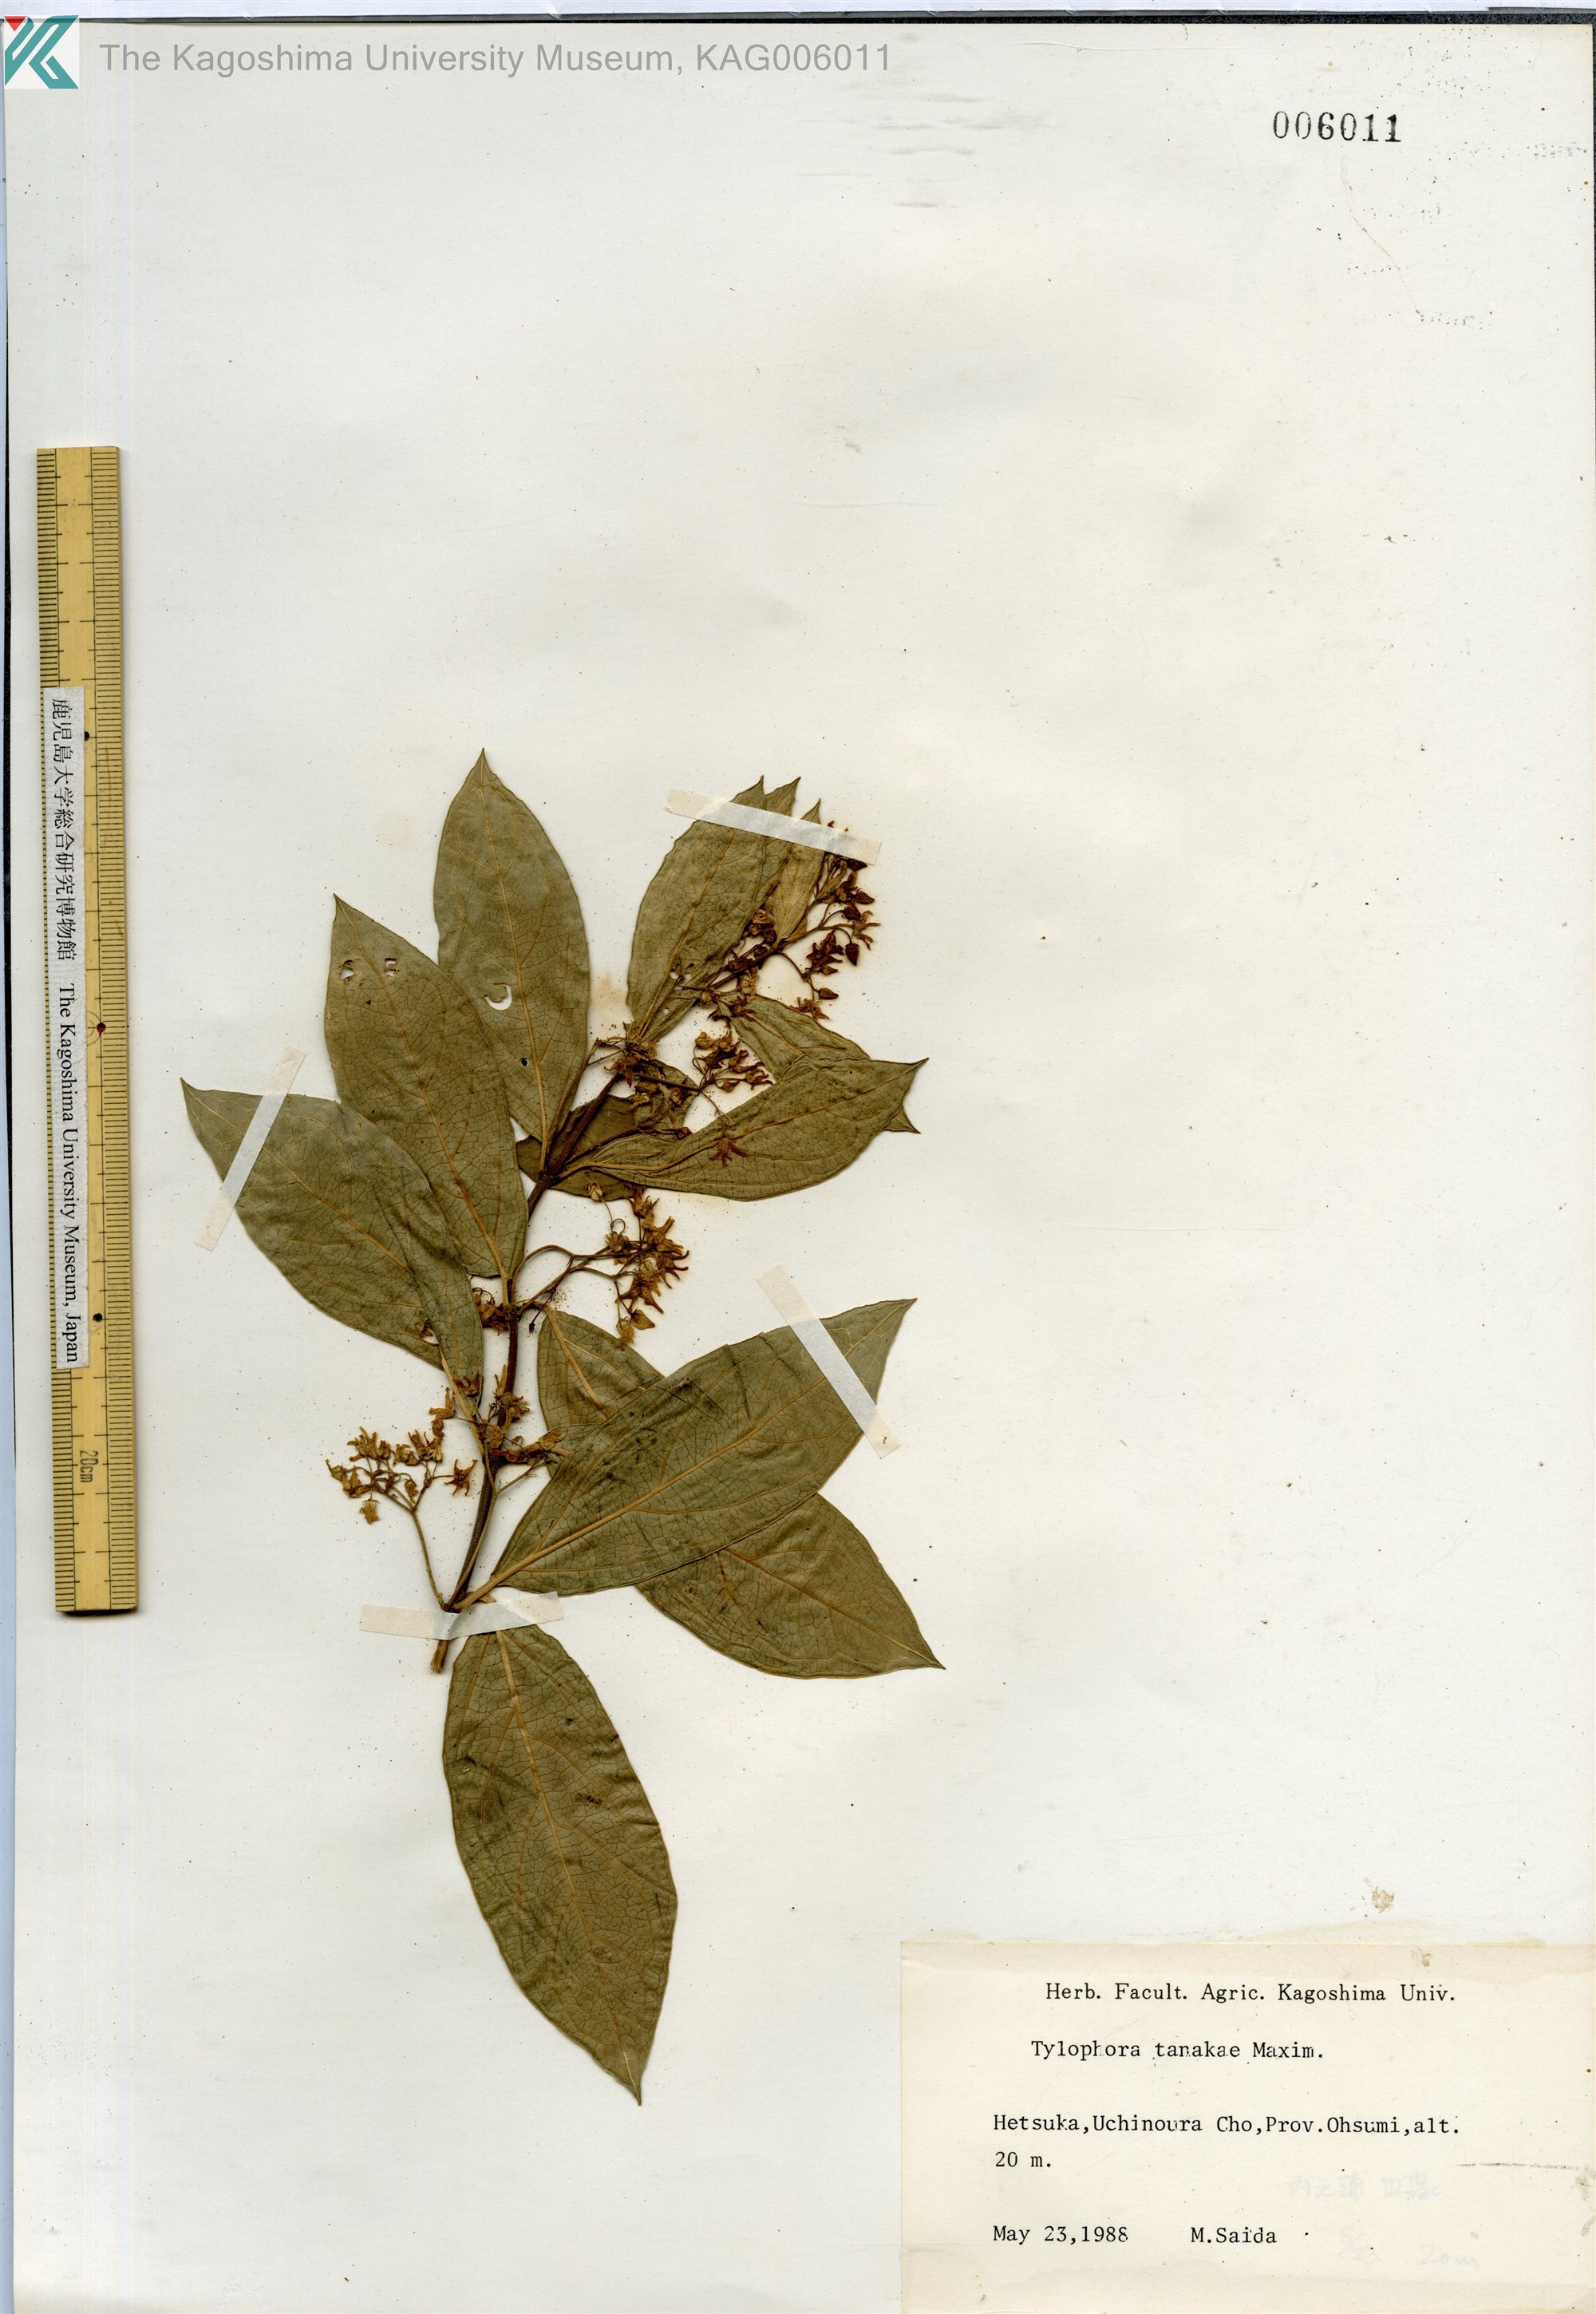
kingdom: Plantae
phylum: Tracheophyta
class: Magnoliopsida
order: Gentianales
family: Apocynaceae
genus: Vincetoxicum
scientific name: Vincetoxicum japonicum
